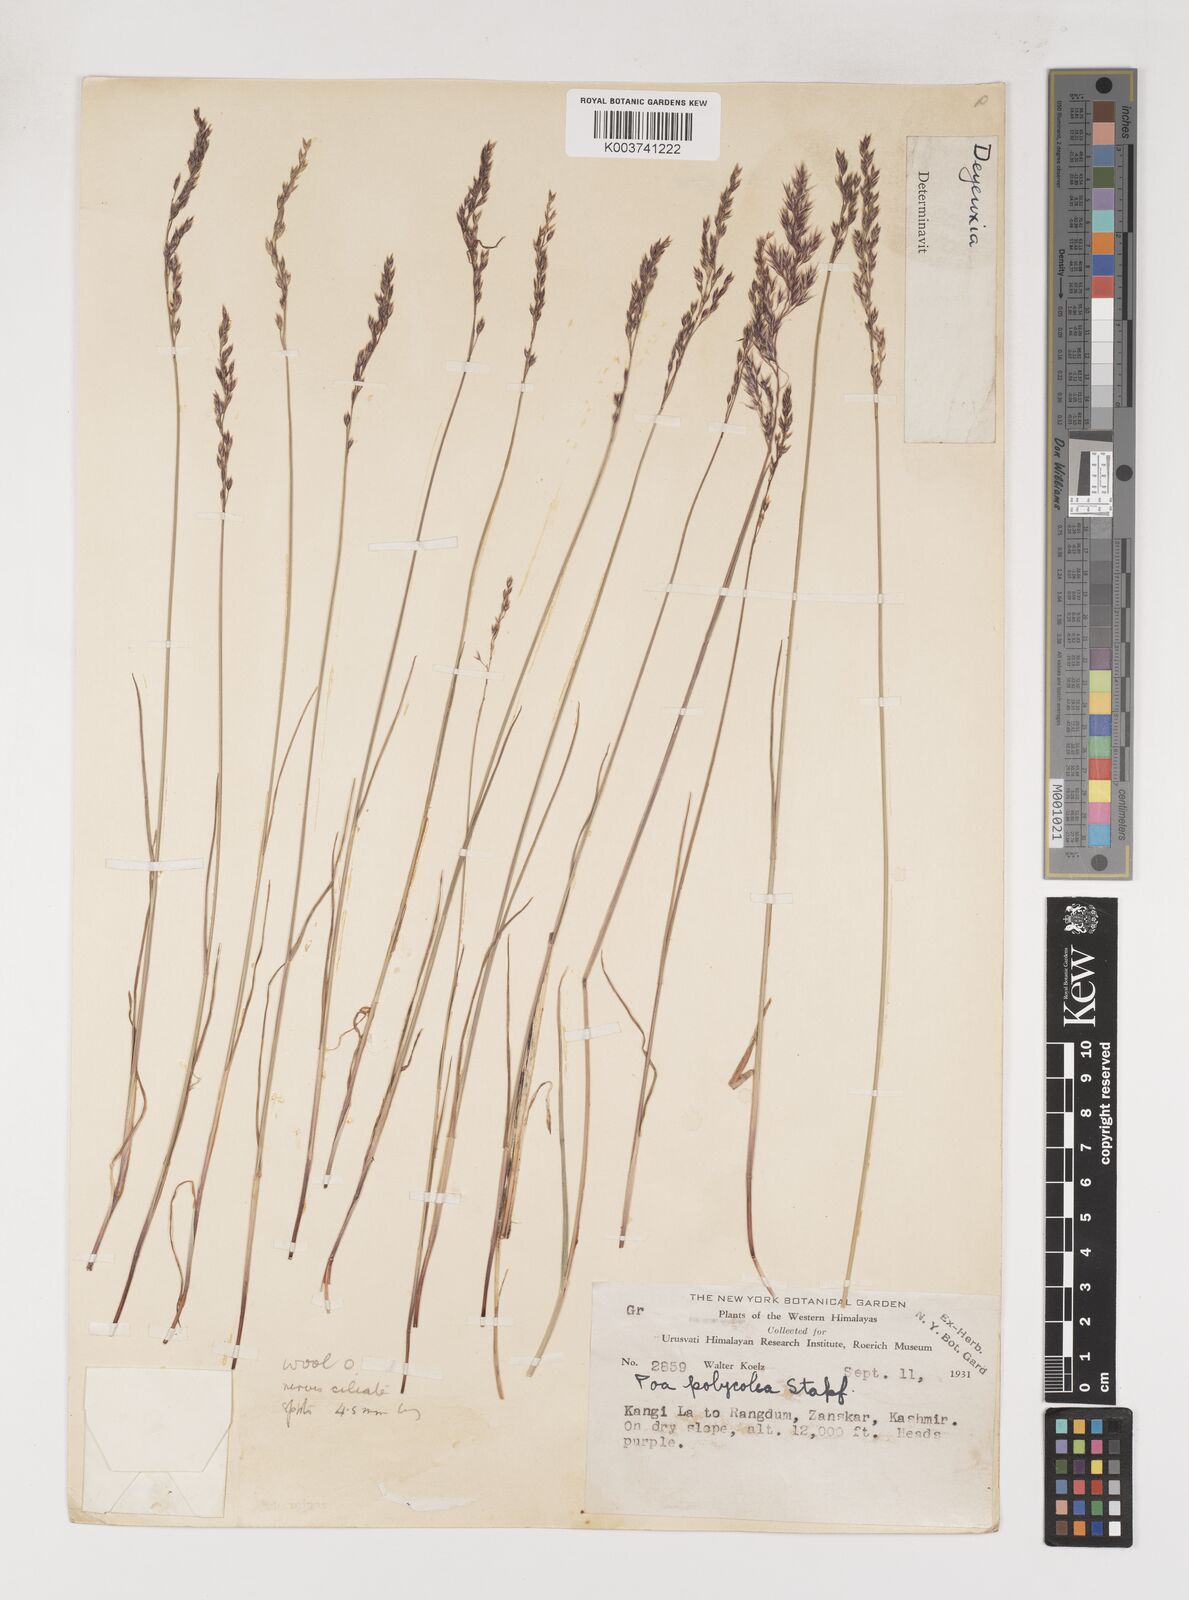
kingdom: Plantae
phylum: Tracheophyta
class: Liliopsida
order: Poales
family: Poaceae
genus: Poa
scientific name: Poa araratica
